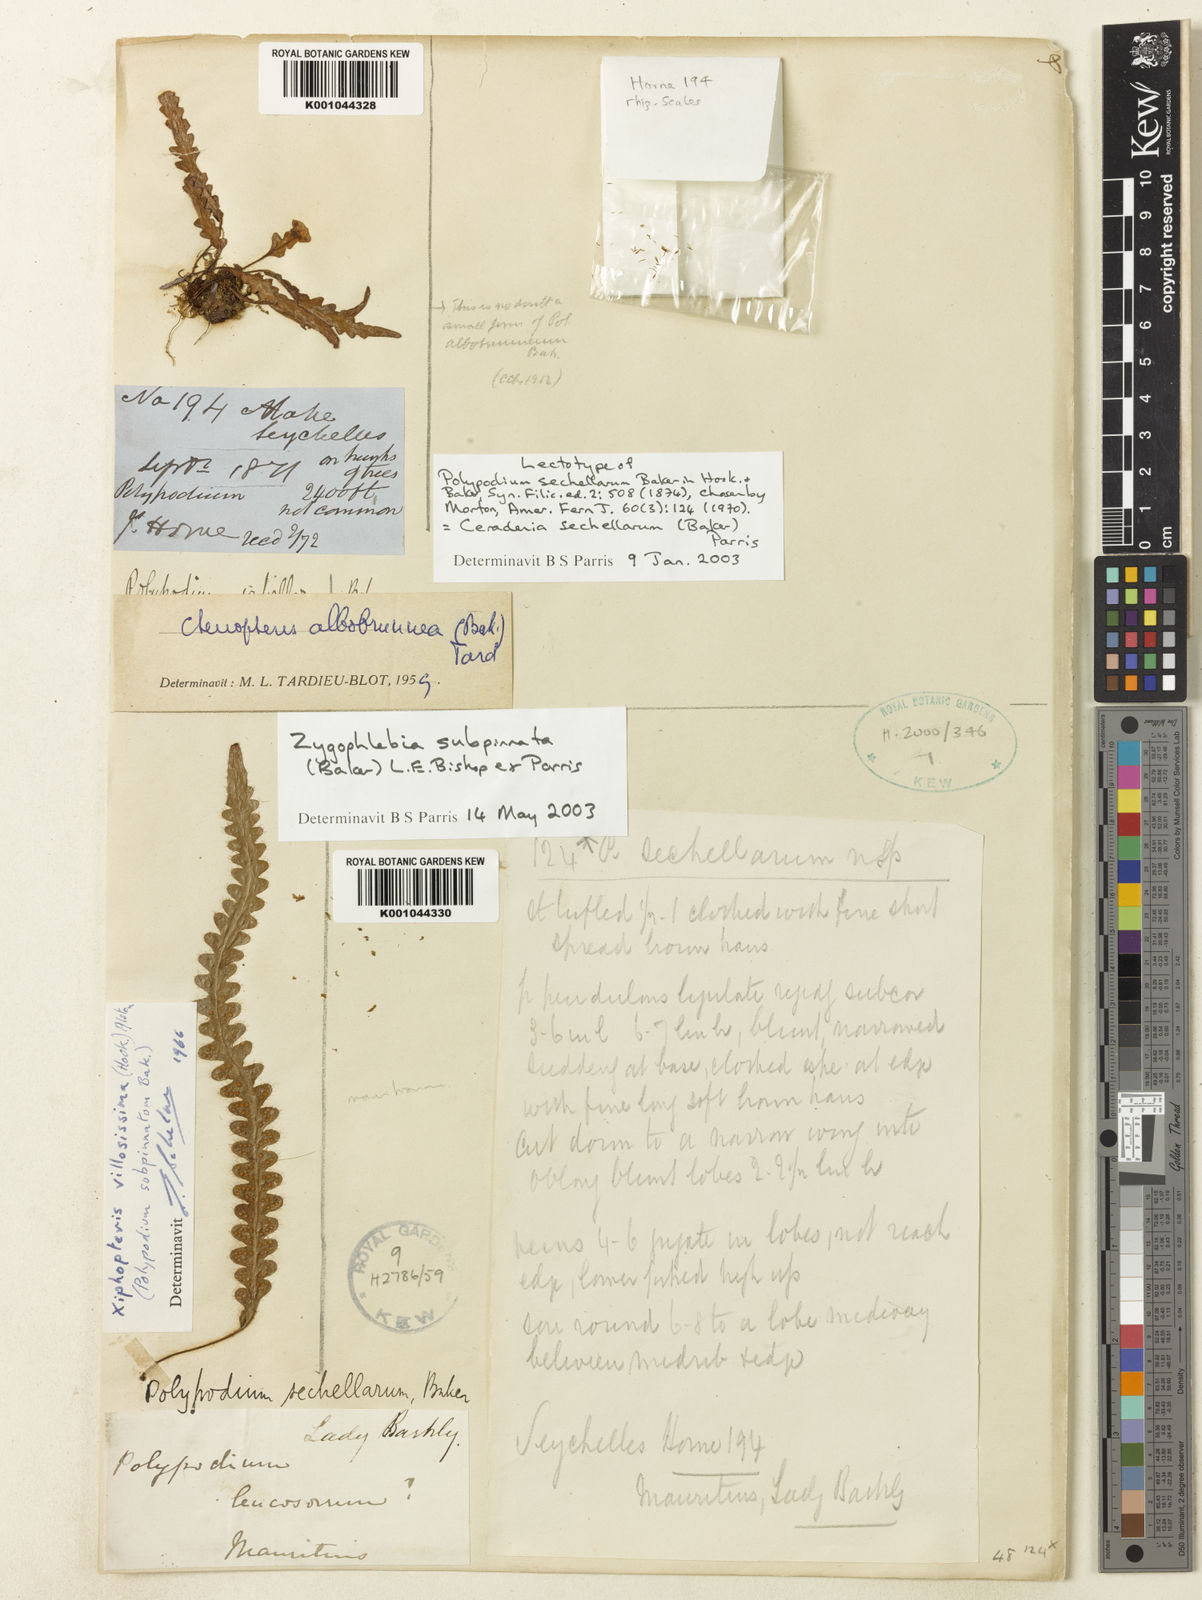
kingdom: Plantae
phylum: Tracheophyta
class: Polypodiopsida
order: Polypodiales
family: Polypodiaceae
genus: Ceradenia
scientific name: Ceradenia sechellarum
